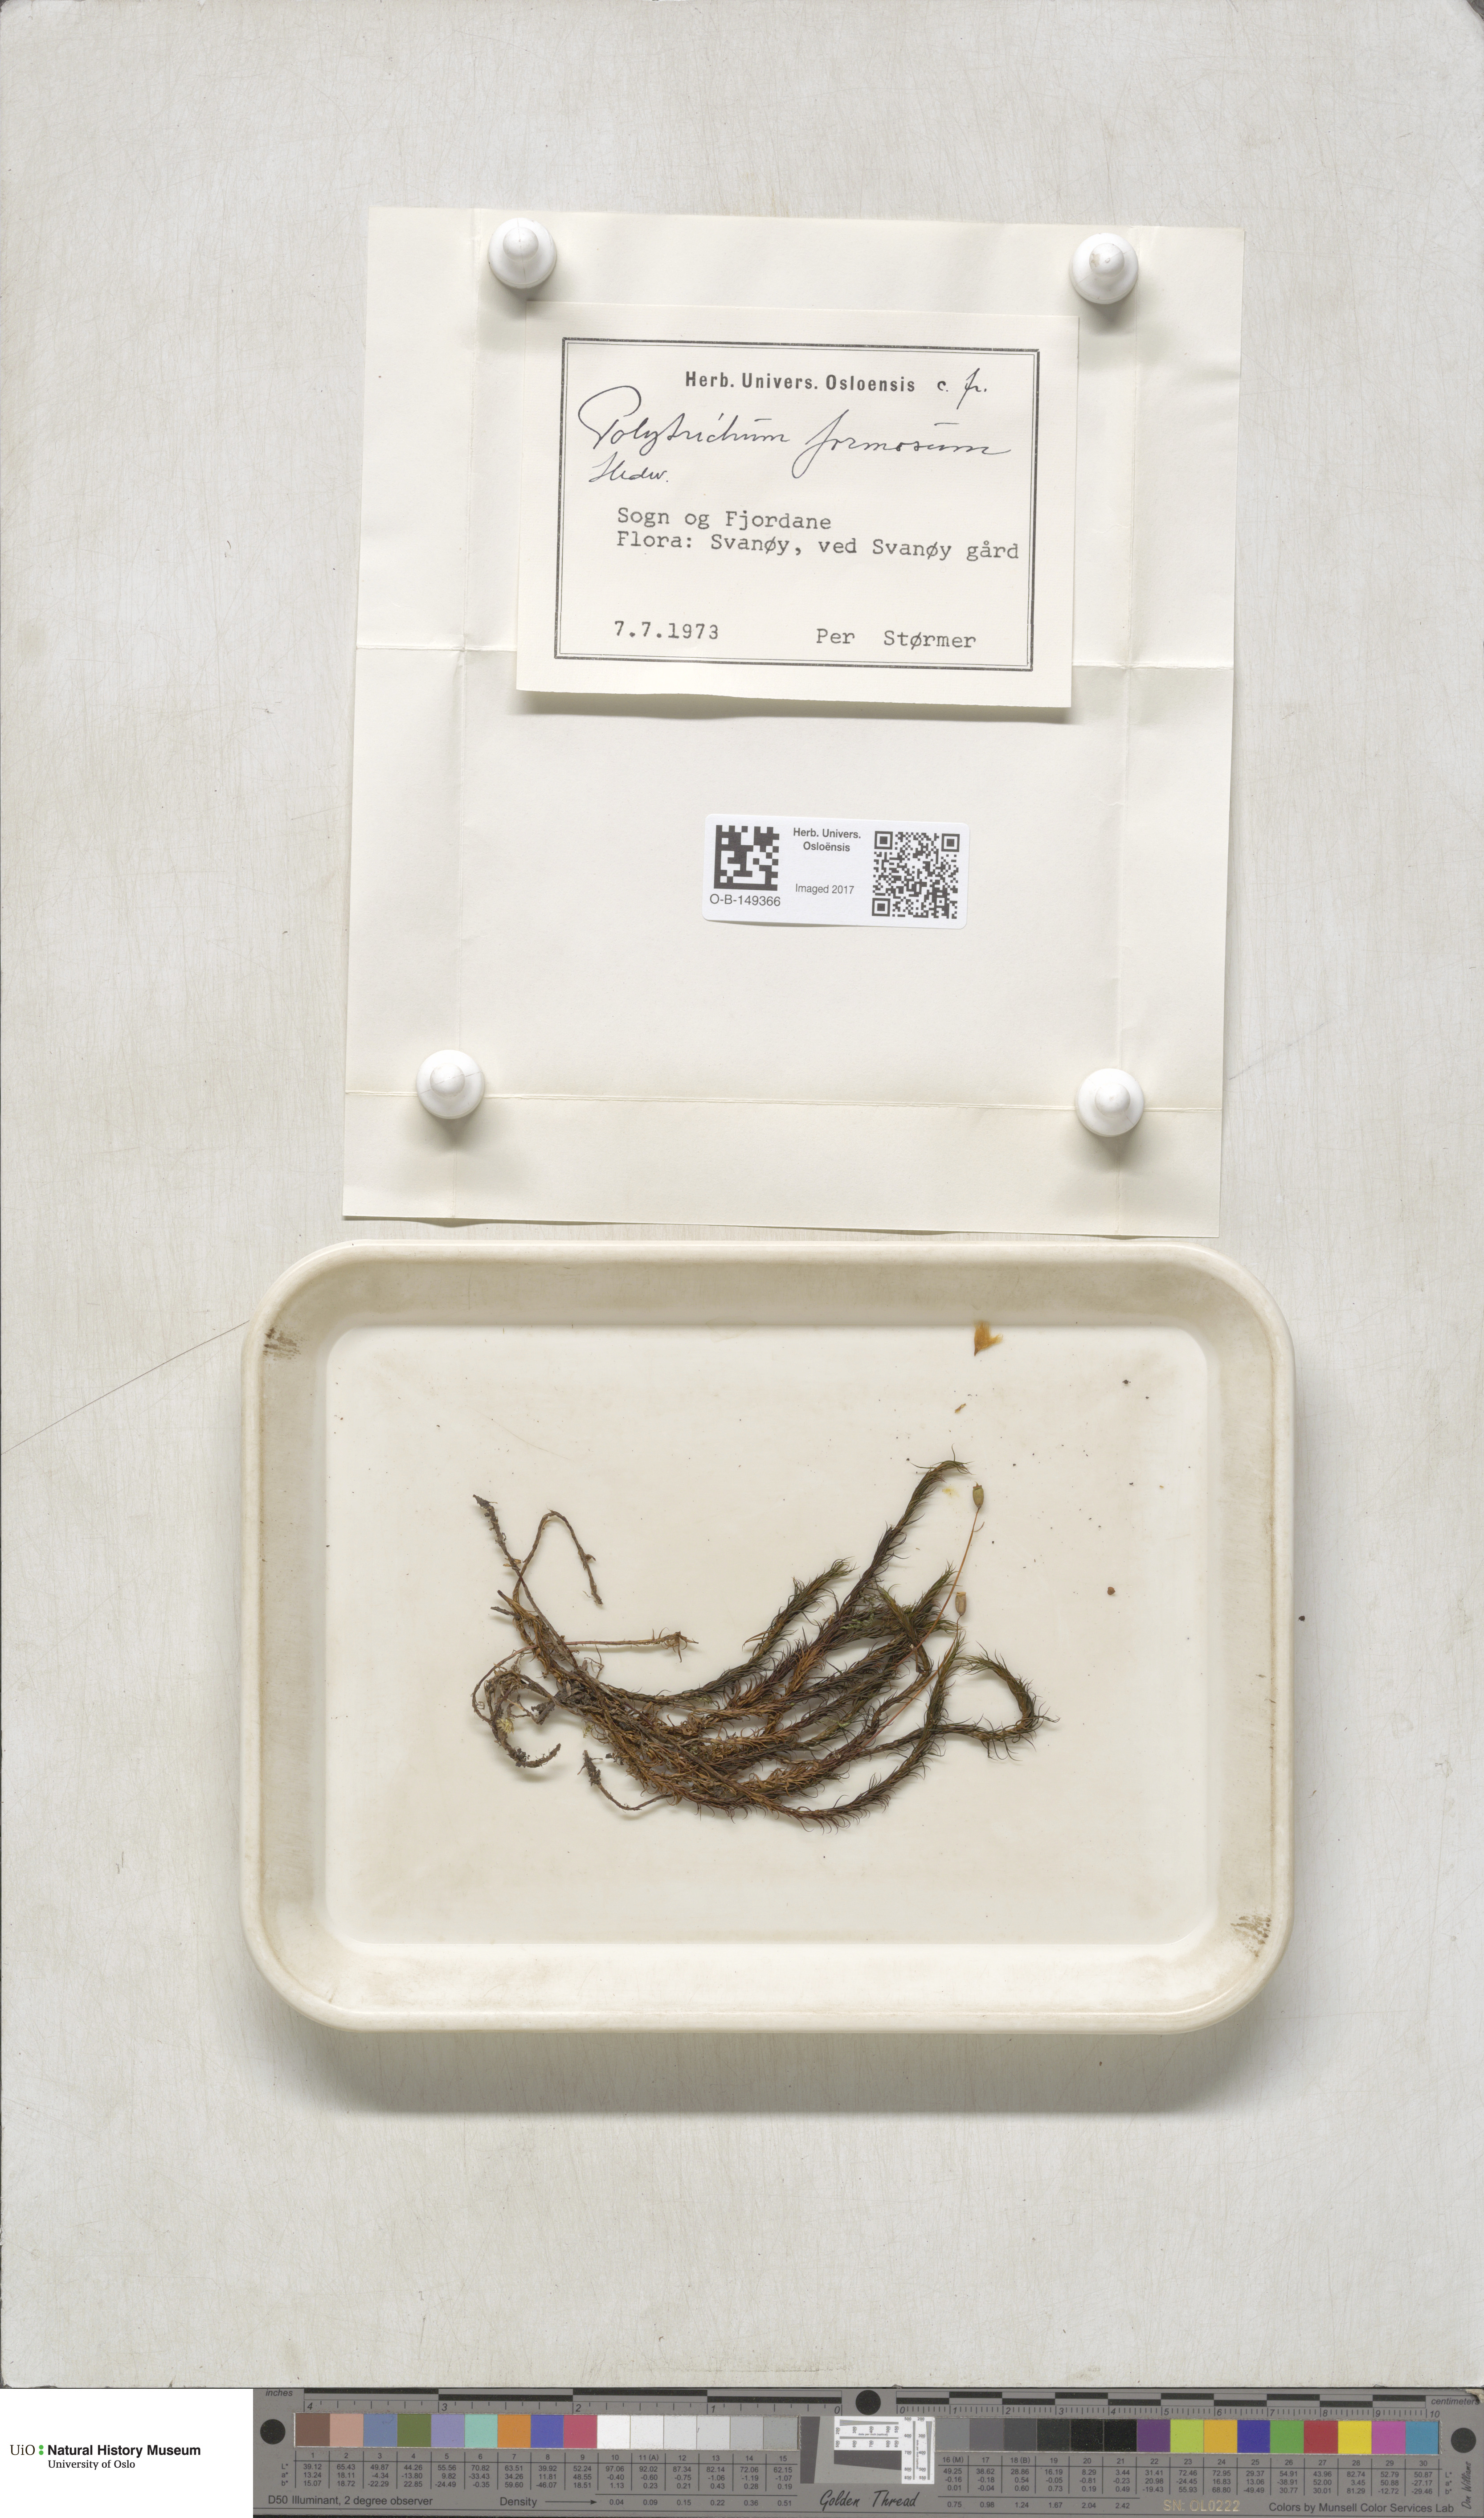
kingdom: Plantae
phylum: Bryophyta
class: Polytrichopsida
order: Polytrichales
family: Polytrichaceae
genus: Polytrichum
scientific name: Polytrichum formosum
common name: Bank haircap moss
